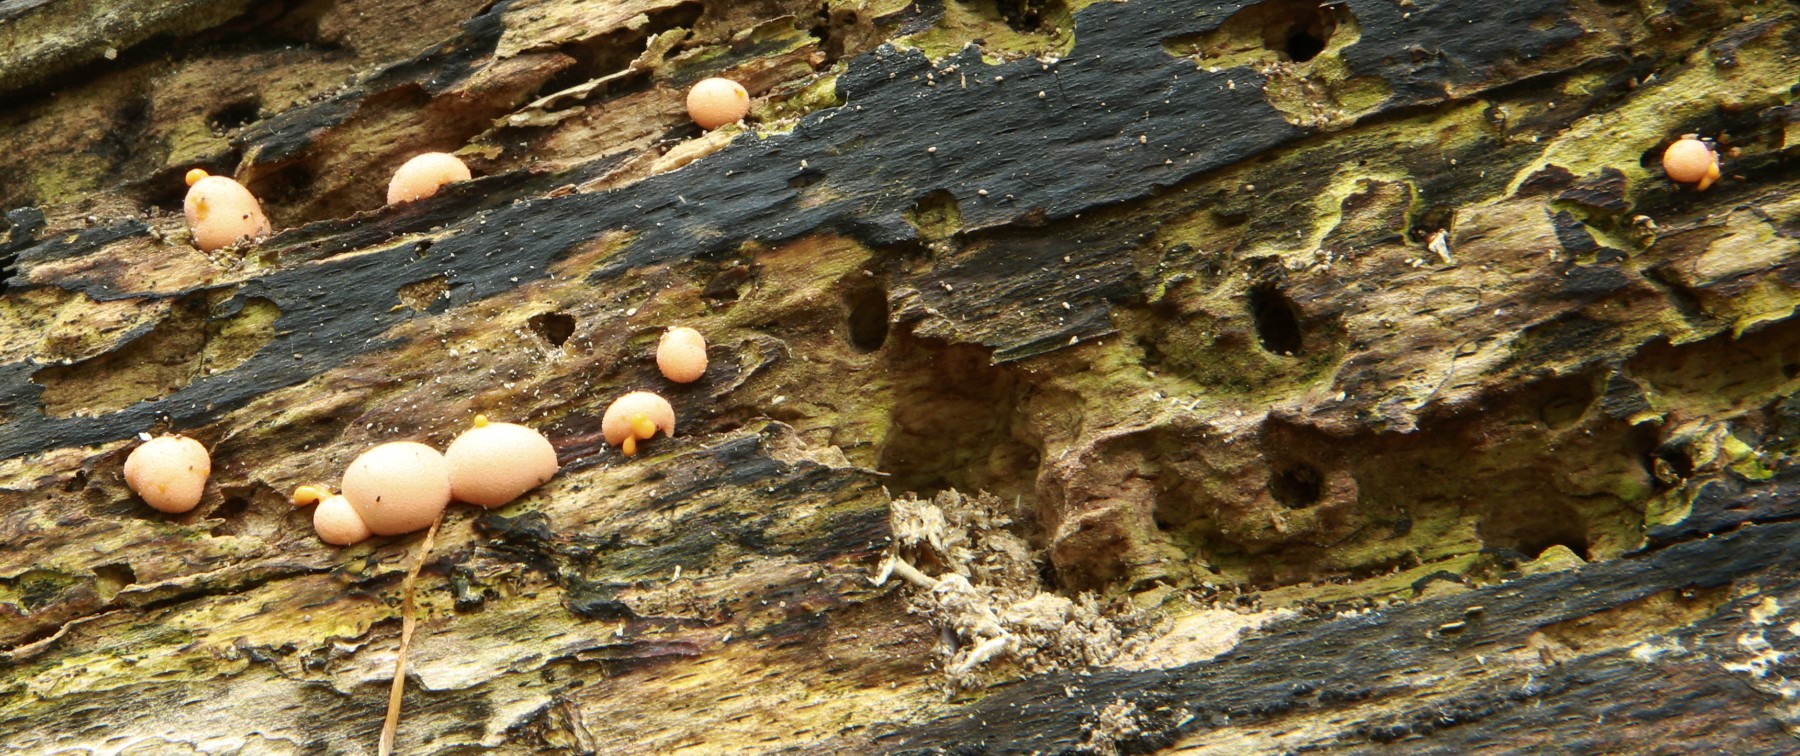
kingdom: Protozoa
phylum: Mycetozoa
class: Myxomycetes
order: Cribrariales
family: Tubiferaceae
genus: Lycogala
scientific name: Lycogala epidendrum
